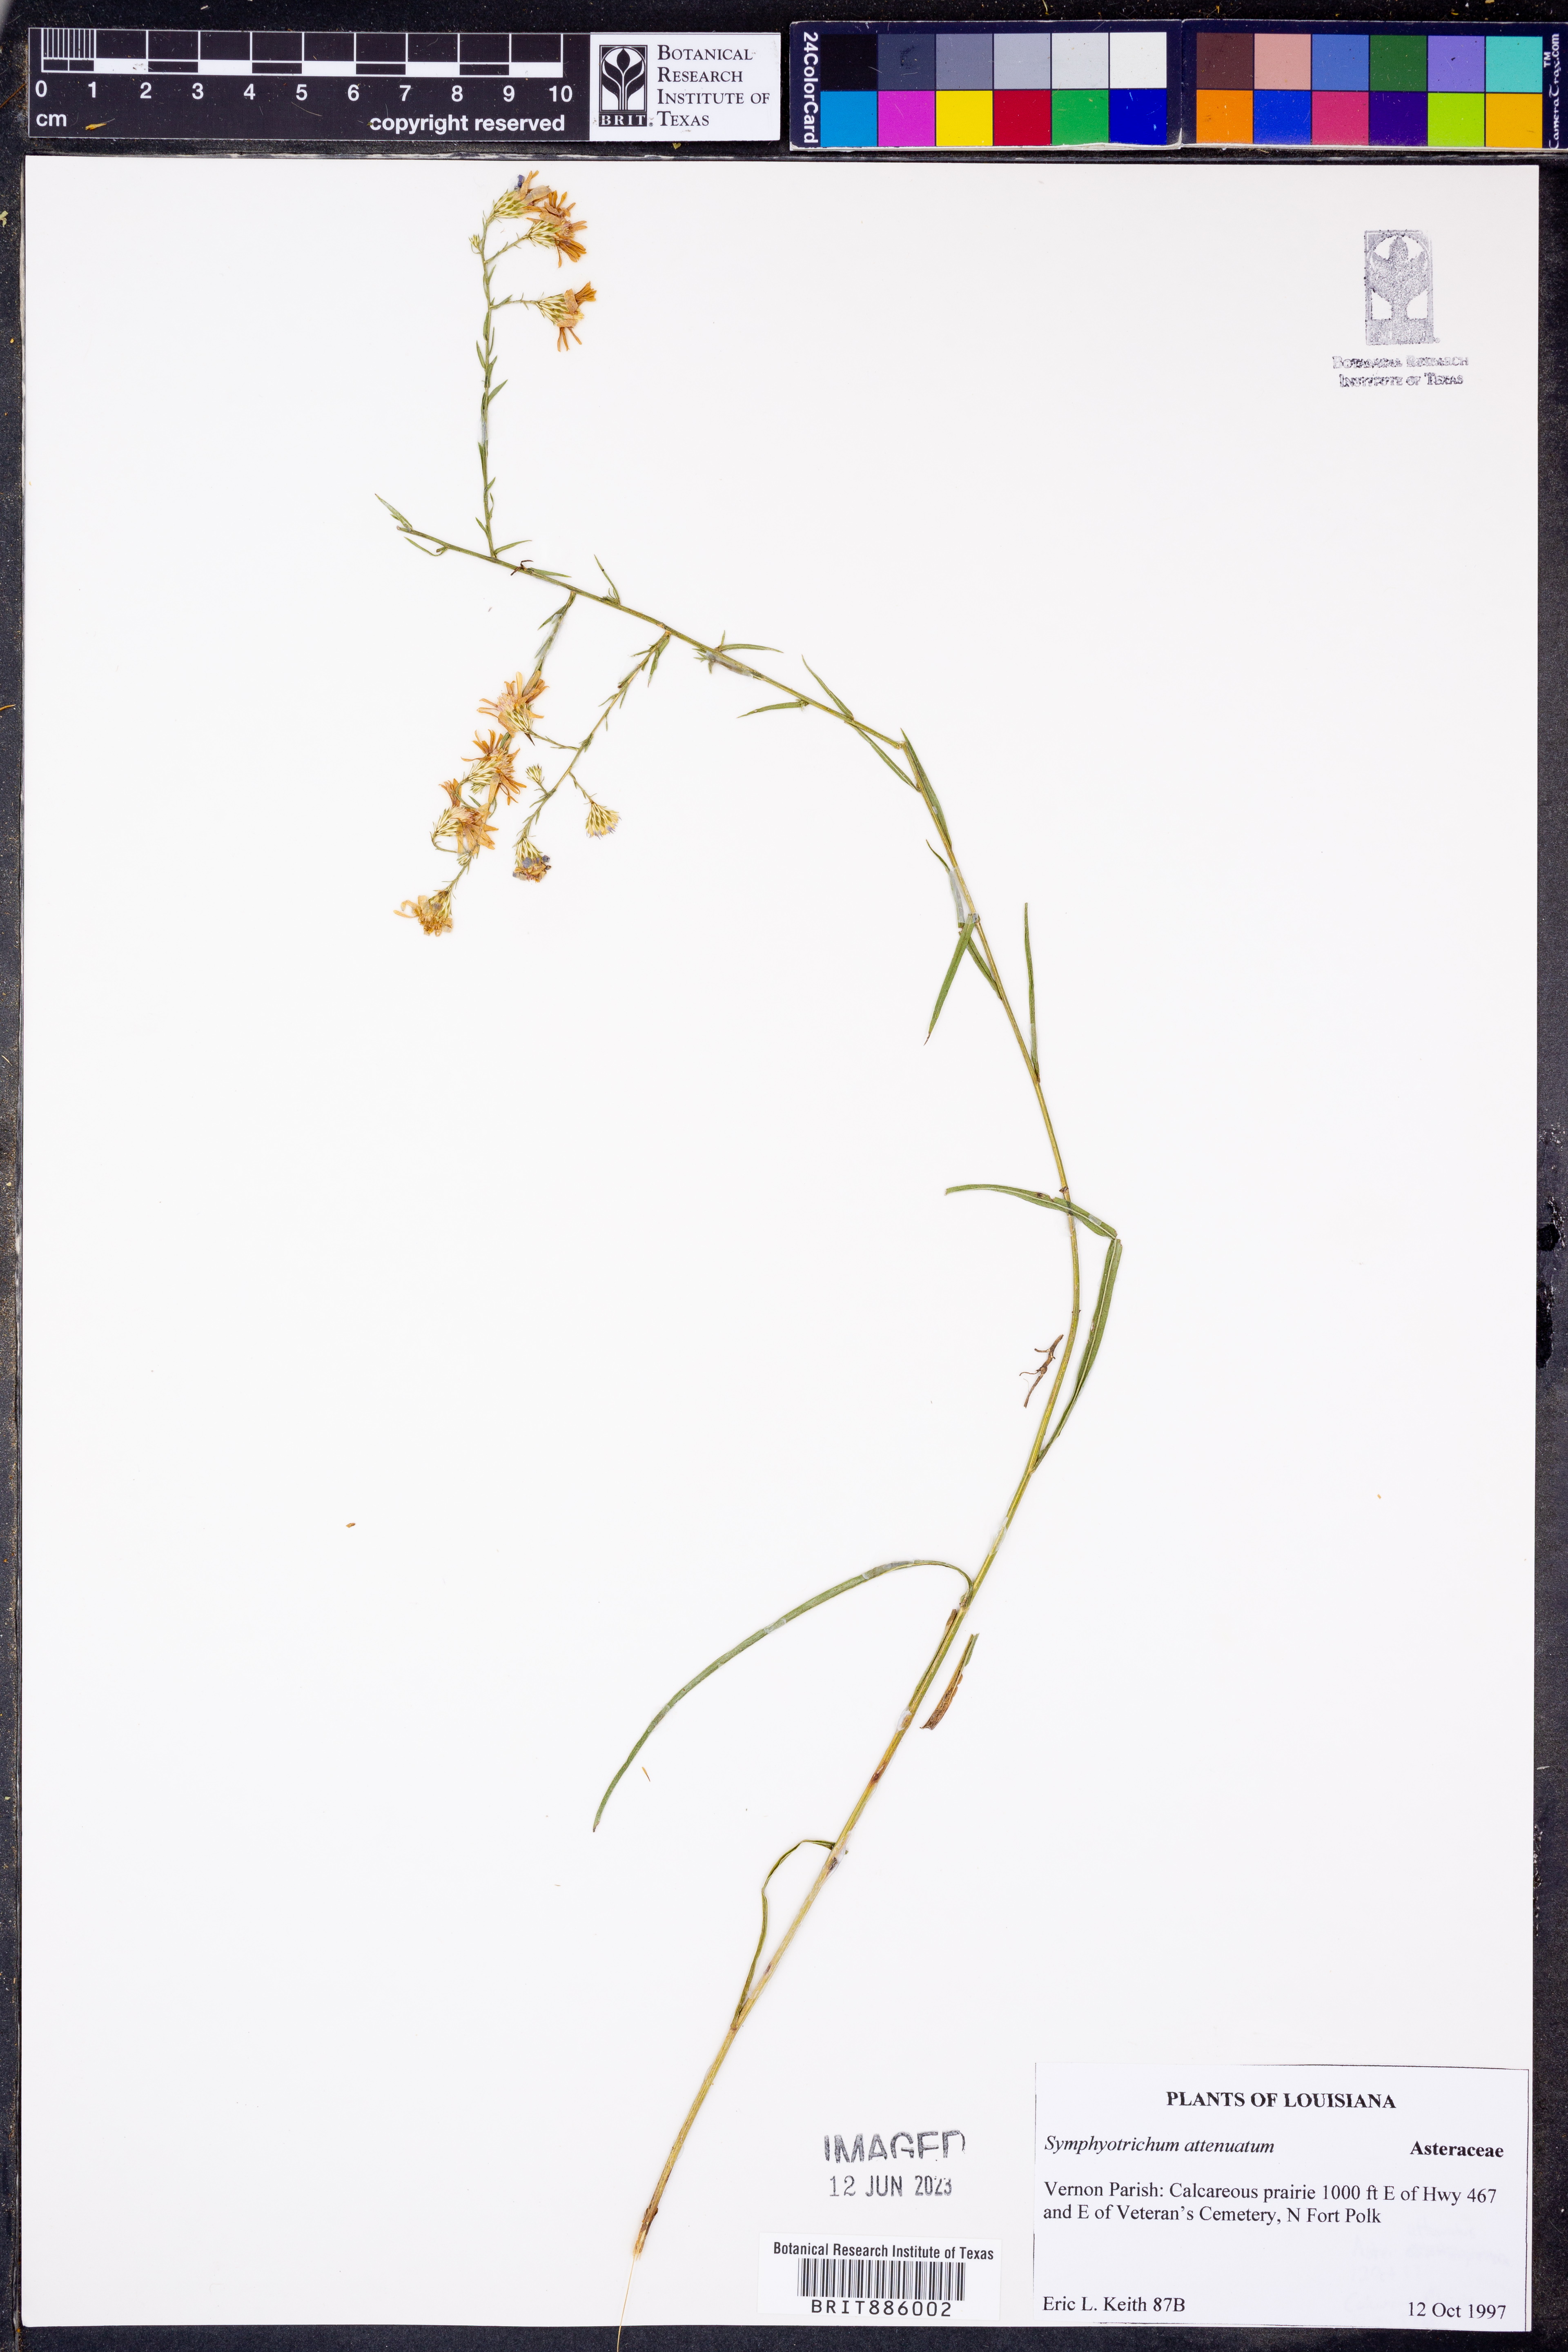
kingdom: Plantae
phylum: Tracheophyta
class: Magnoliopsida
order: Asterales
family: Asteraceae
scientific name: Asteraceae
